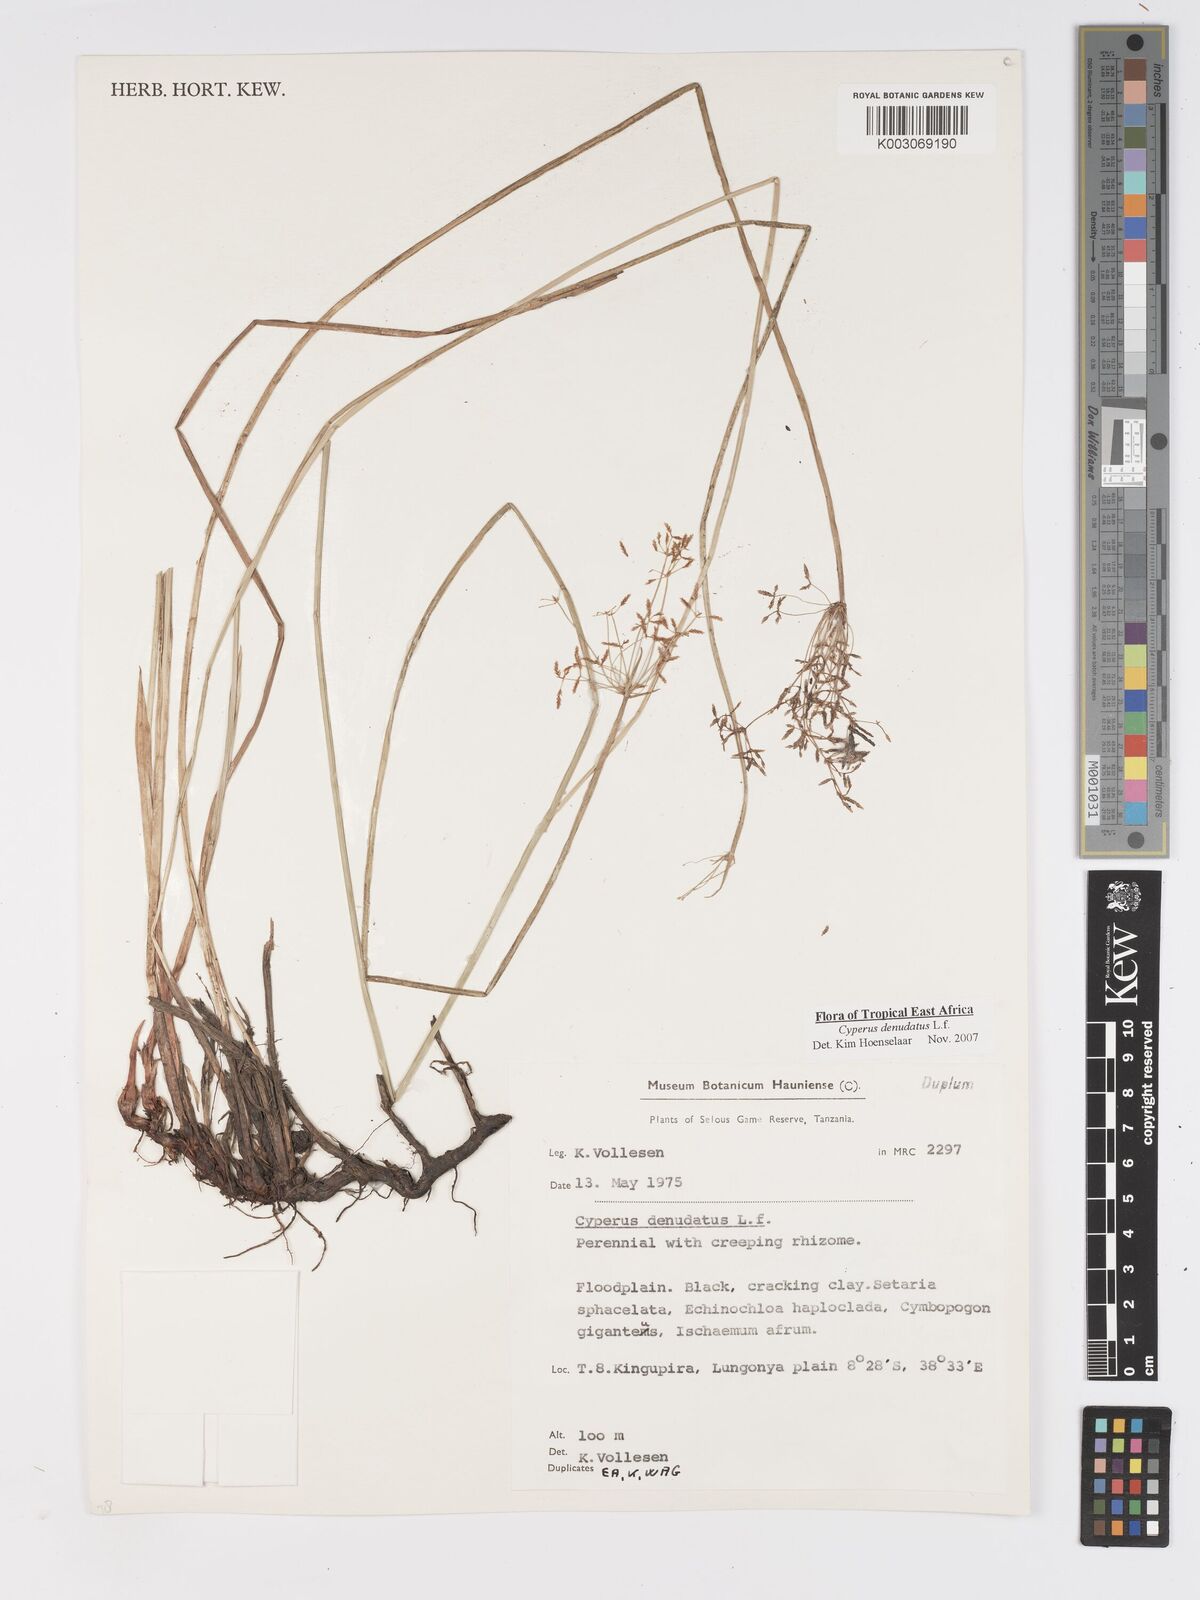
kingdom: Plantae
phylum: Tracheophyta
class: Liliopsida
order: Poales
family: Cyperaceae
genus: Cyperus
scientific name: Cyperus denudatus
